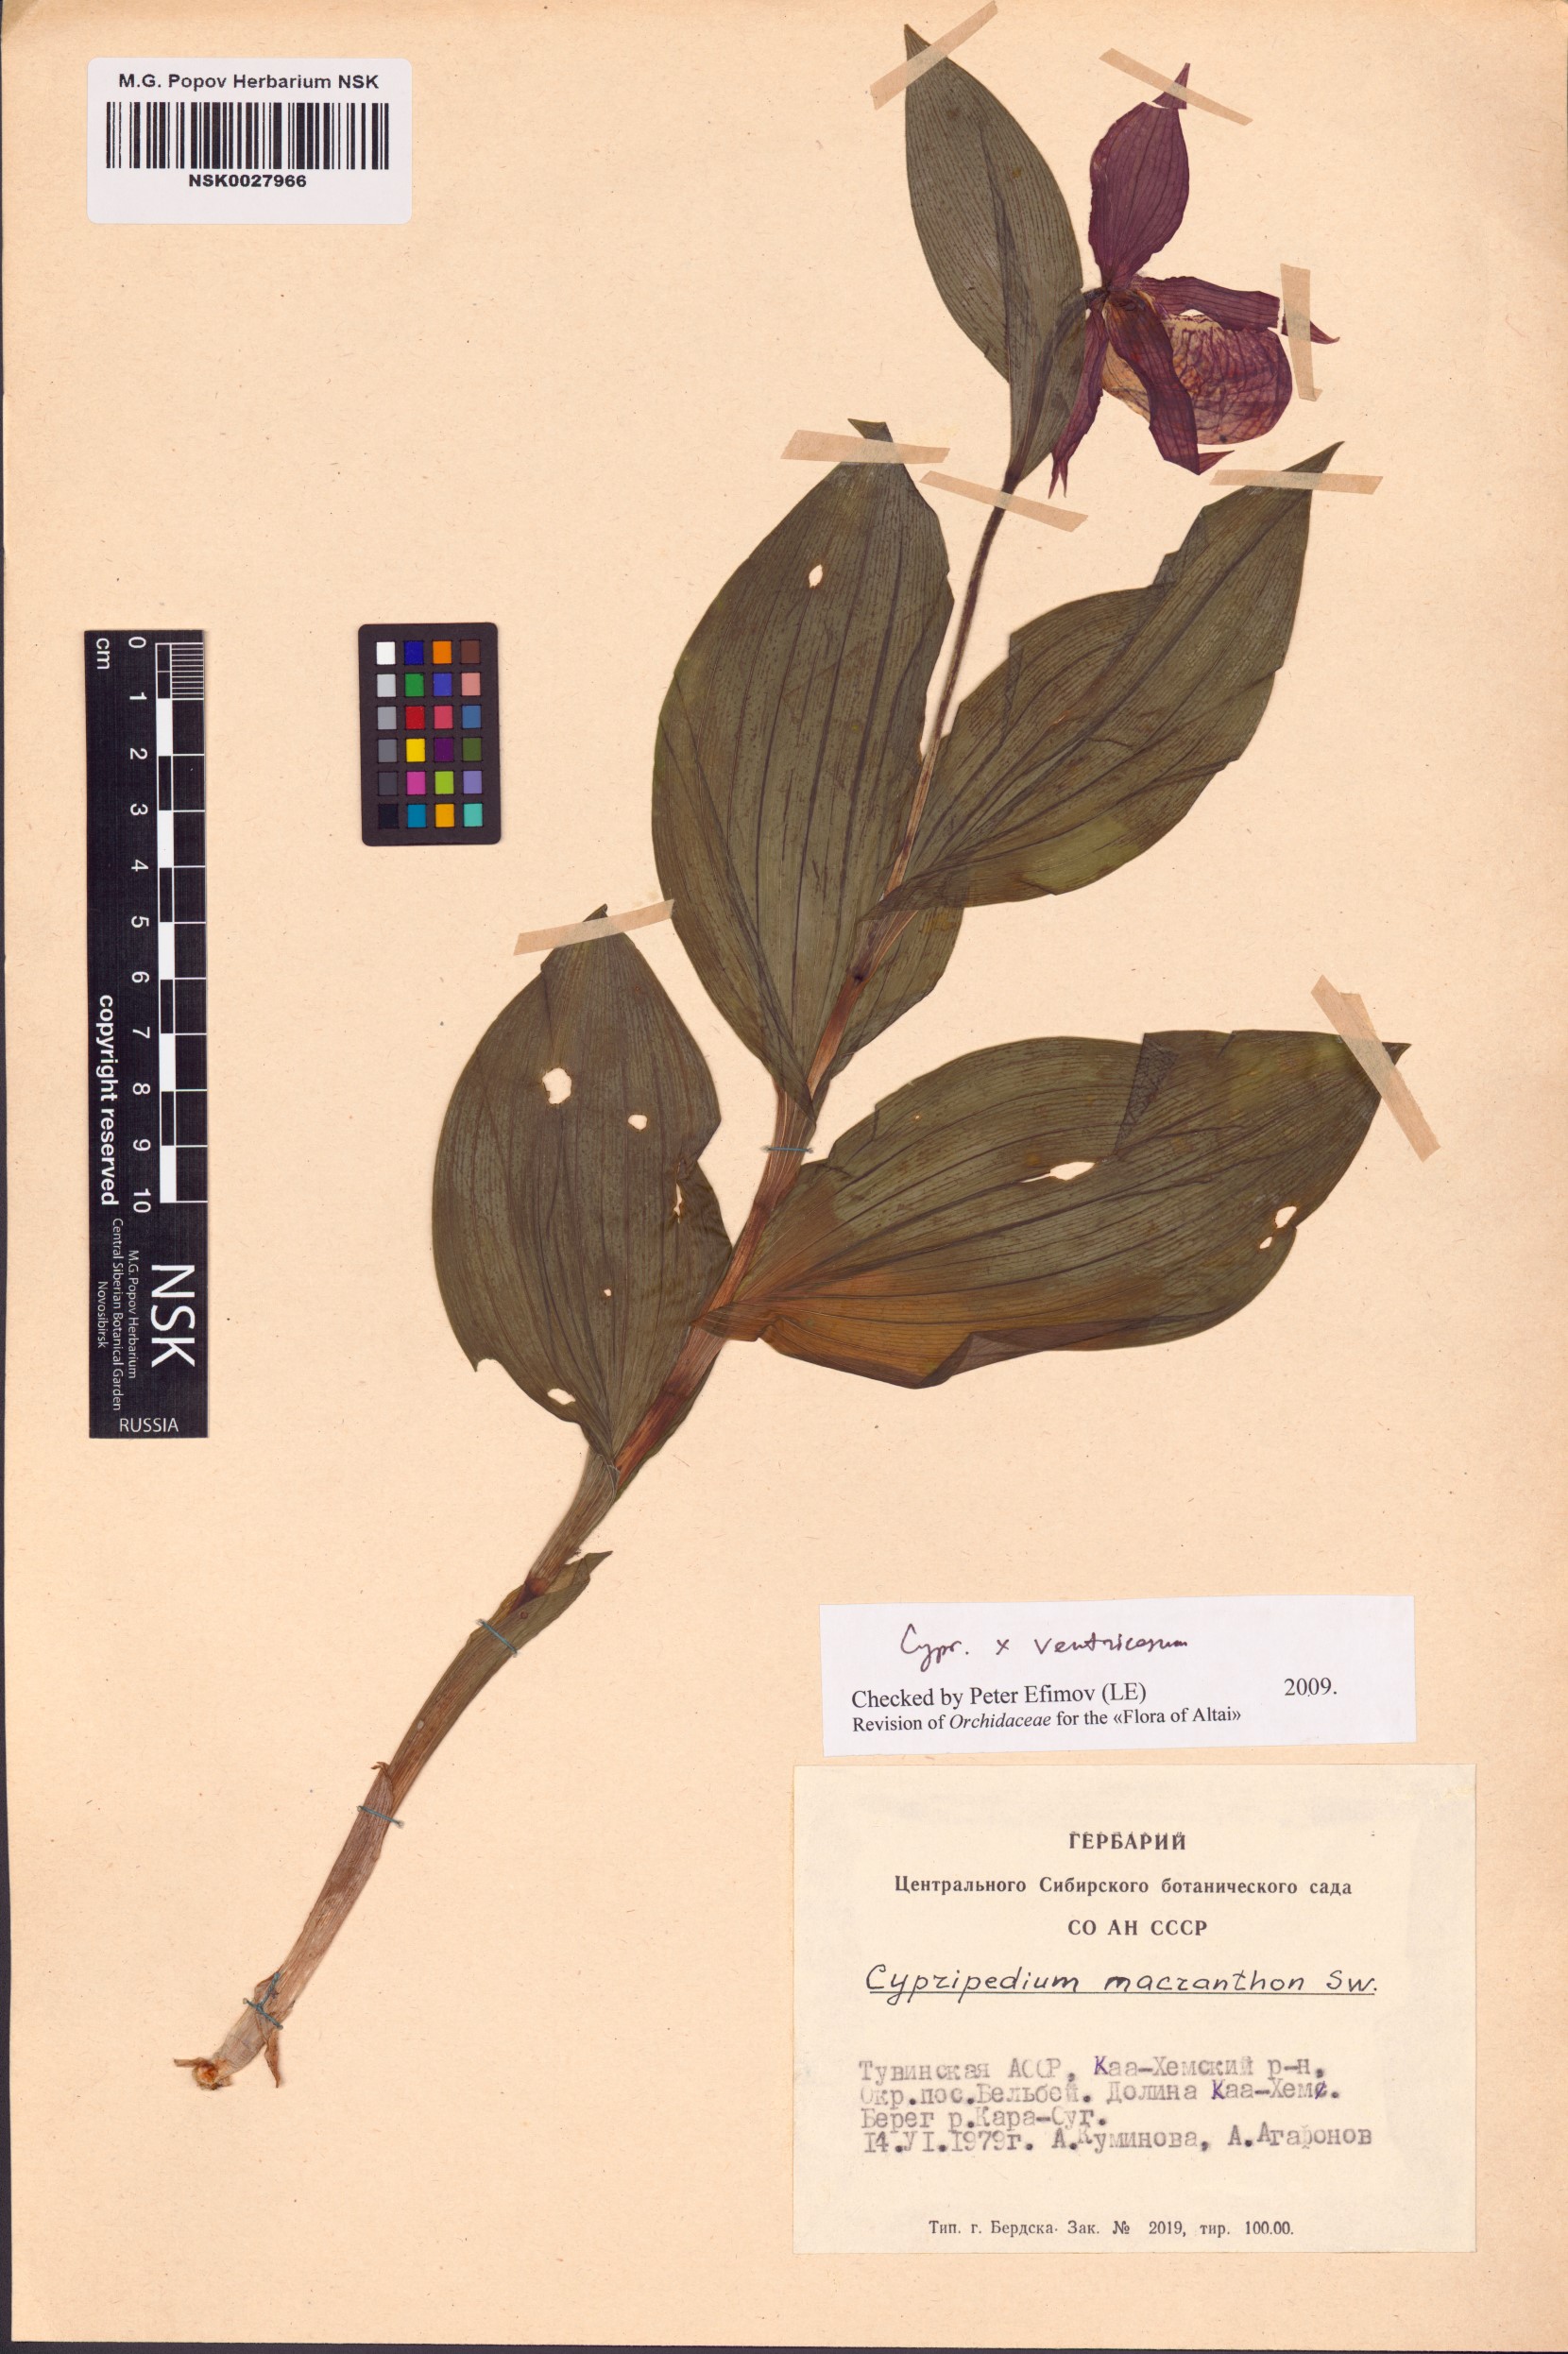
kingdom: Plantae
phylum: Tracheophyta
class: Liliopsida
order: Asparagales
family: Orchidaceae
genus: Cypripedium
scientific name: Cypripedium ventricosum
